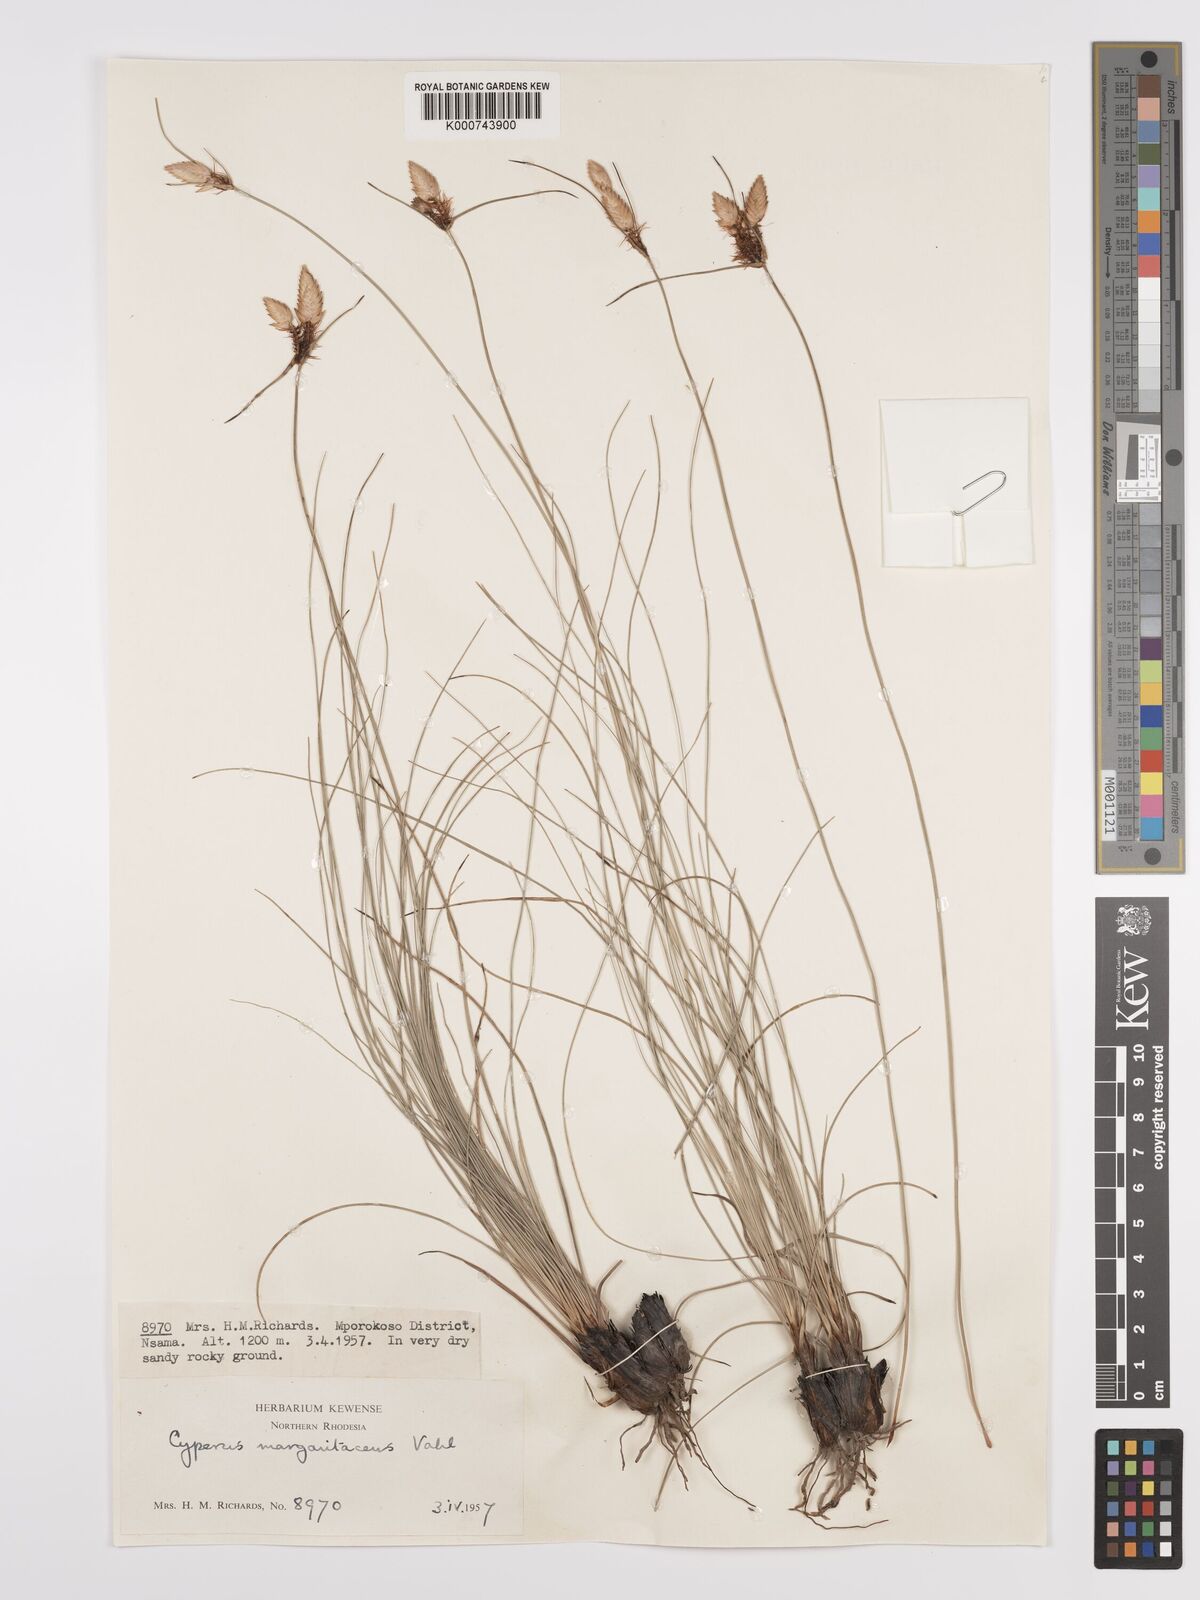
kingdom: Plantae
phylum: Tracheophyta
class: Liliopsida
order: Poales
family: Cyperaceae
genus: Cyperus
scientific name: Cyperus margaritaceus
